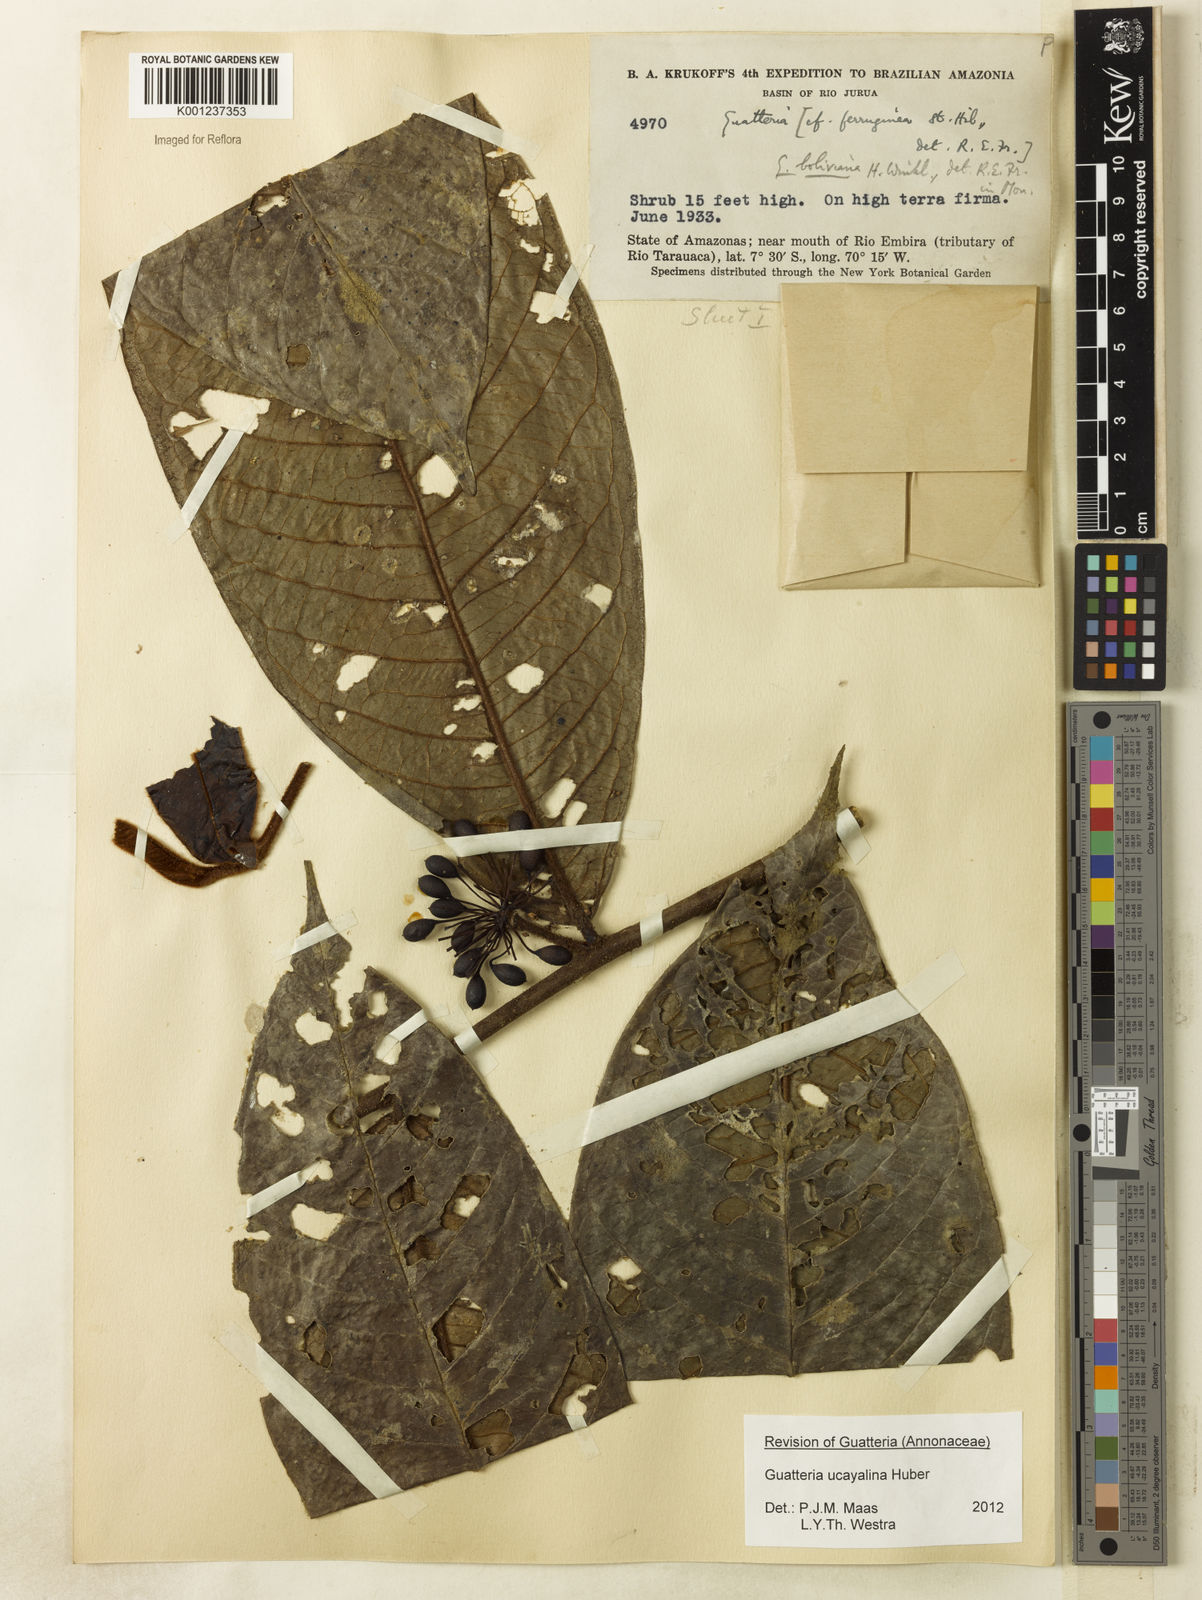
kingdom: Plantae
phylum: Tracheophyta
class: Magnoliopsida
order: Magnoliales
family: Annonaceae
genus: Guatteria
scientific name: Guatteria blepharophylla
